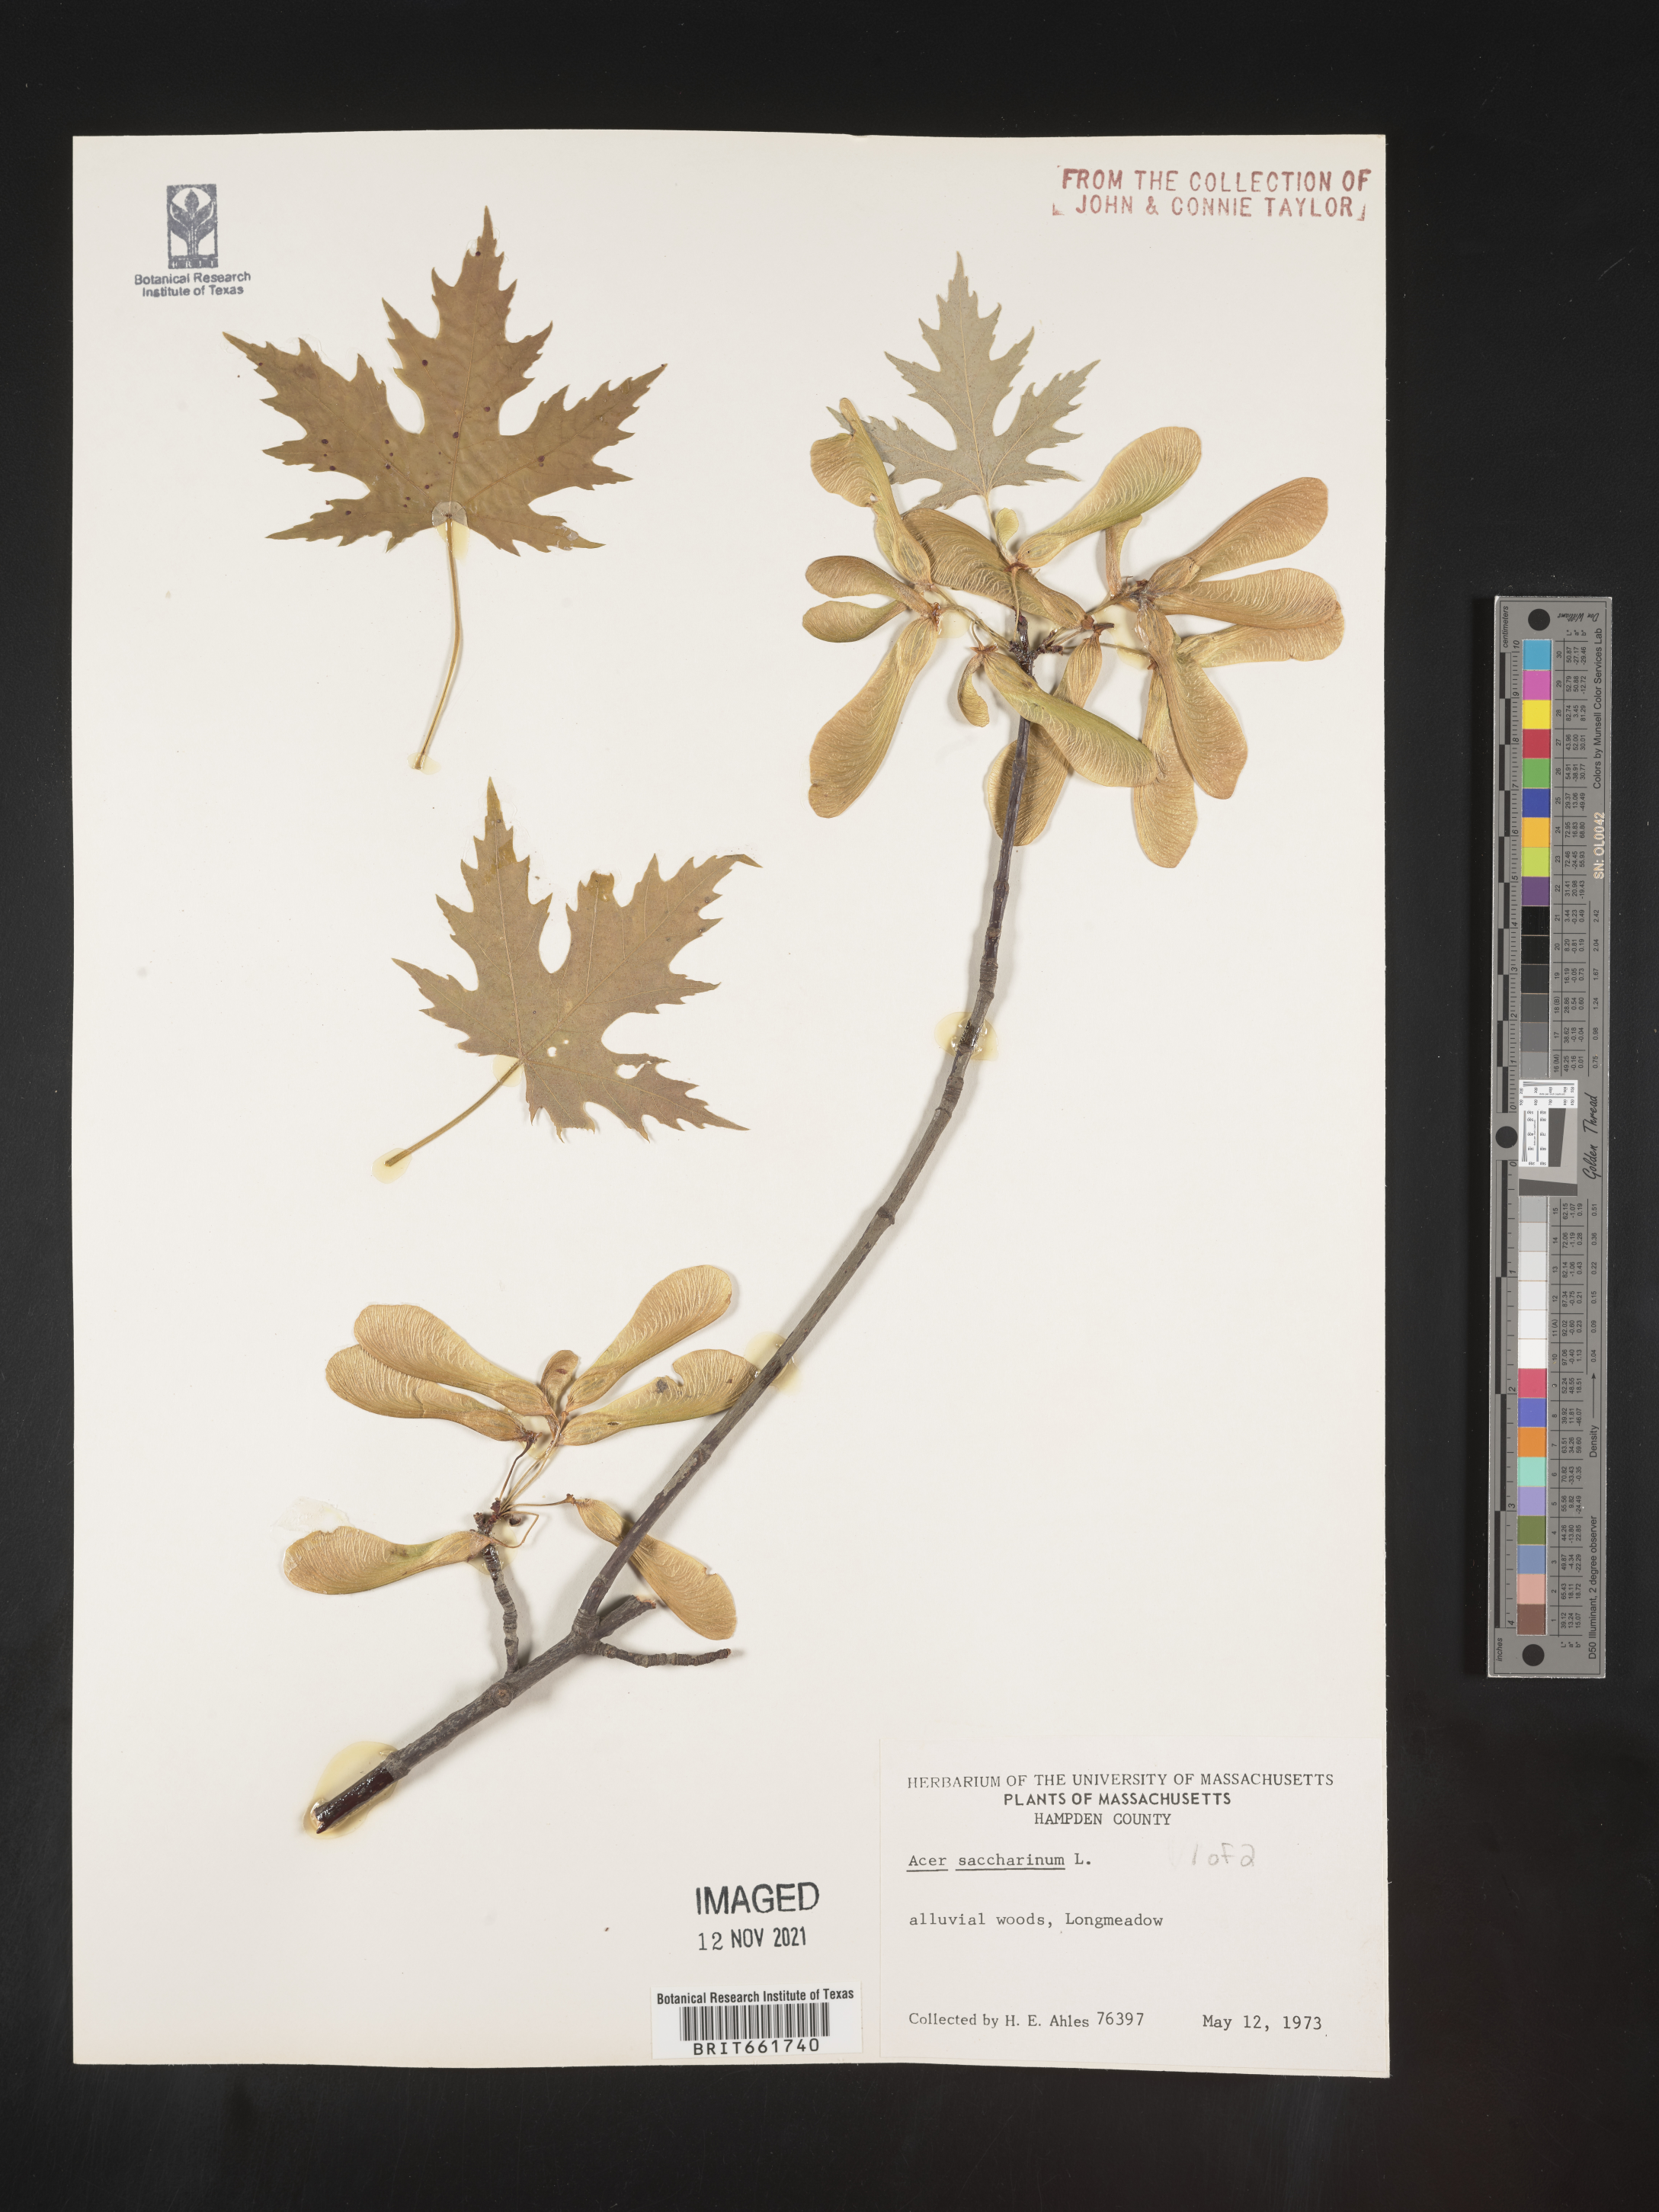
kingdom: Plantae
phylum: Tracheophyta
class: Magnoliopsida
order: Sapindales
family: Sapindaceae
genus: Acer
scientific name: Acer saccharinum
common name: Silver maple
